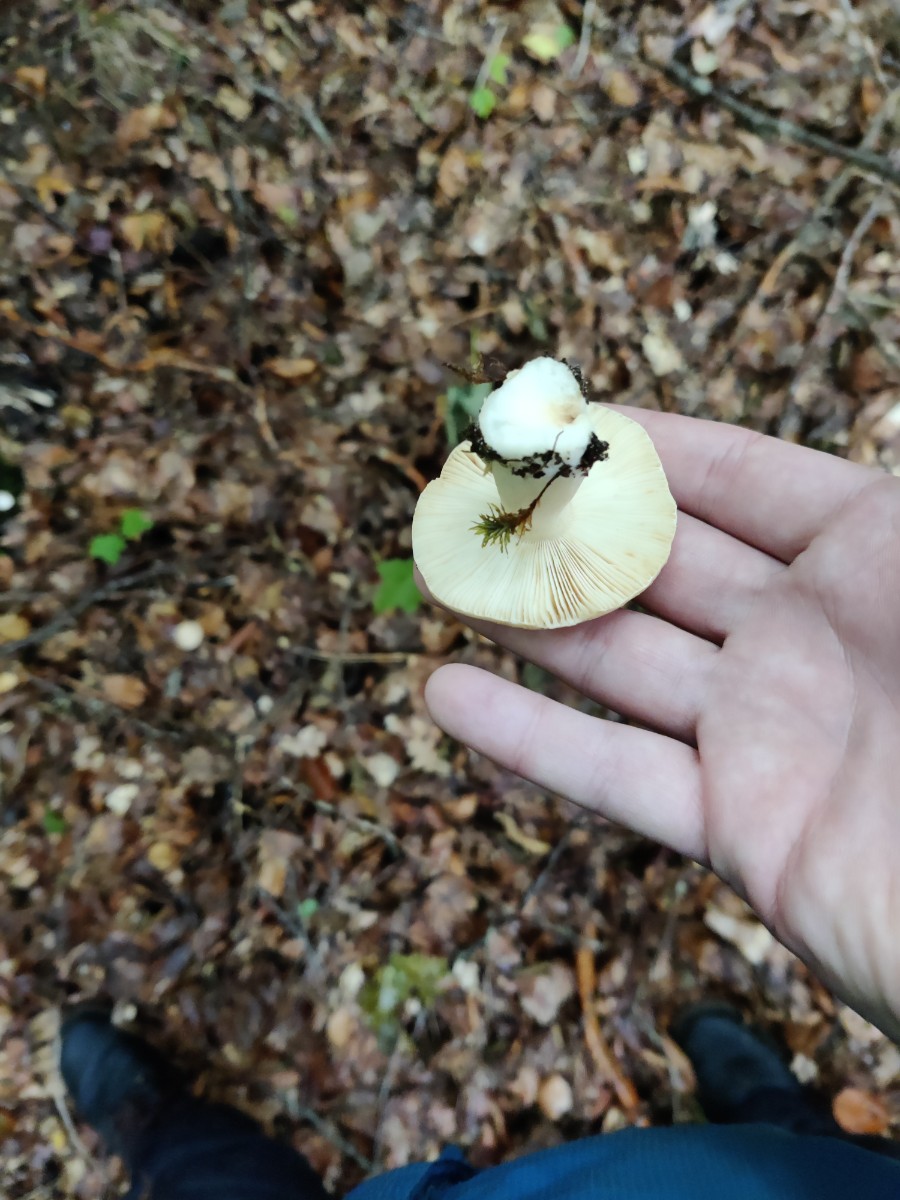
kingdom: Fungi
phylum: Basidiomycota
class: Agaricomycetes
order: Russulales
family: Russulaceae
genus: Russula
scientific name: Russula fellea
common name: galde-skørhat
